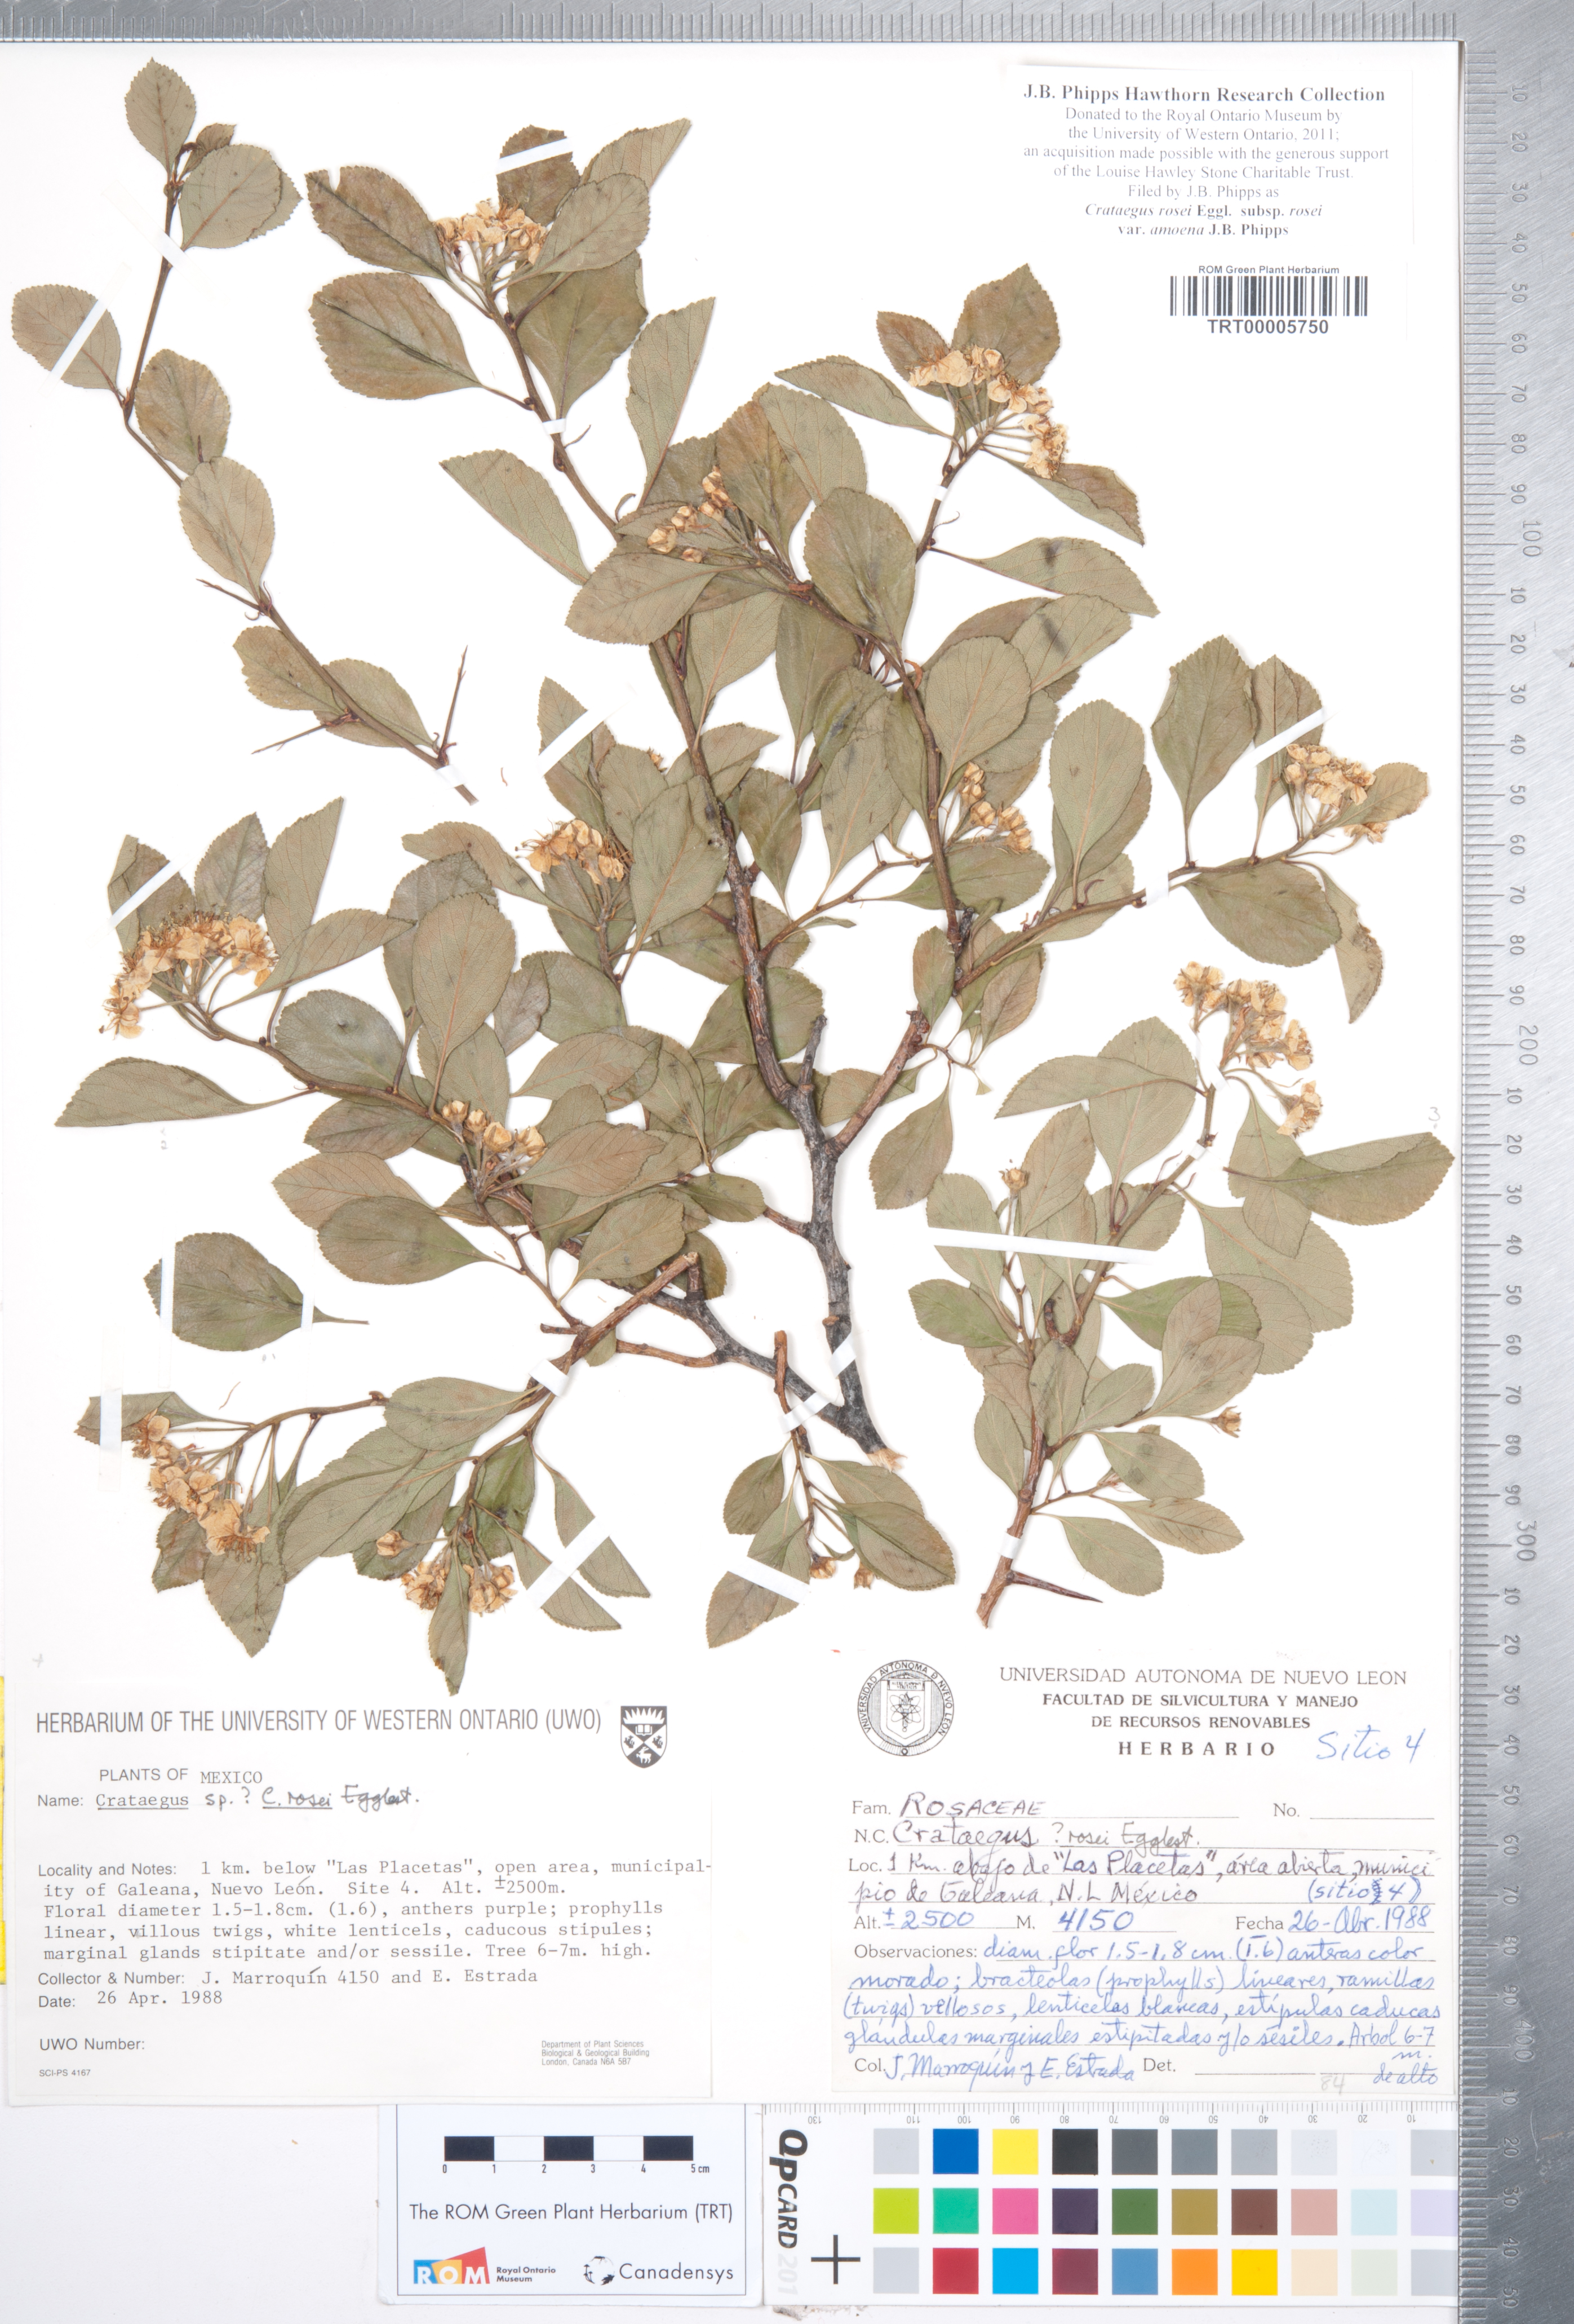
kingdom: Plantae
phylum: Tracheophyta
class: Magnoliopsida
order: Rosales
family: Rosaceae
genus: Crataegus
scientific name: Crataegus rosei
